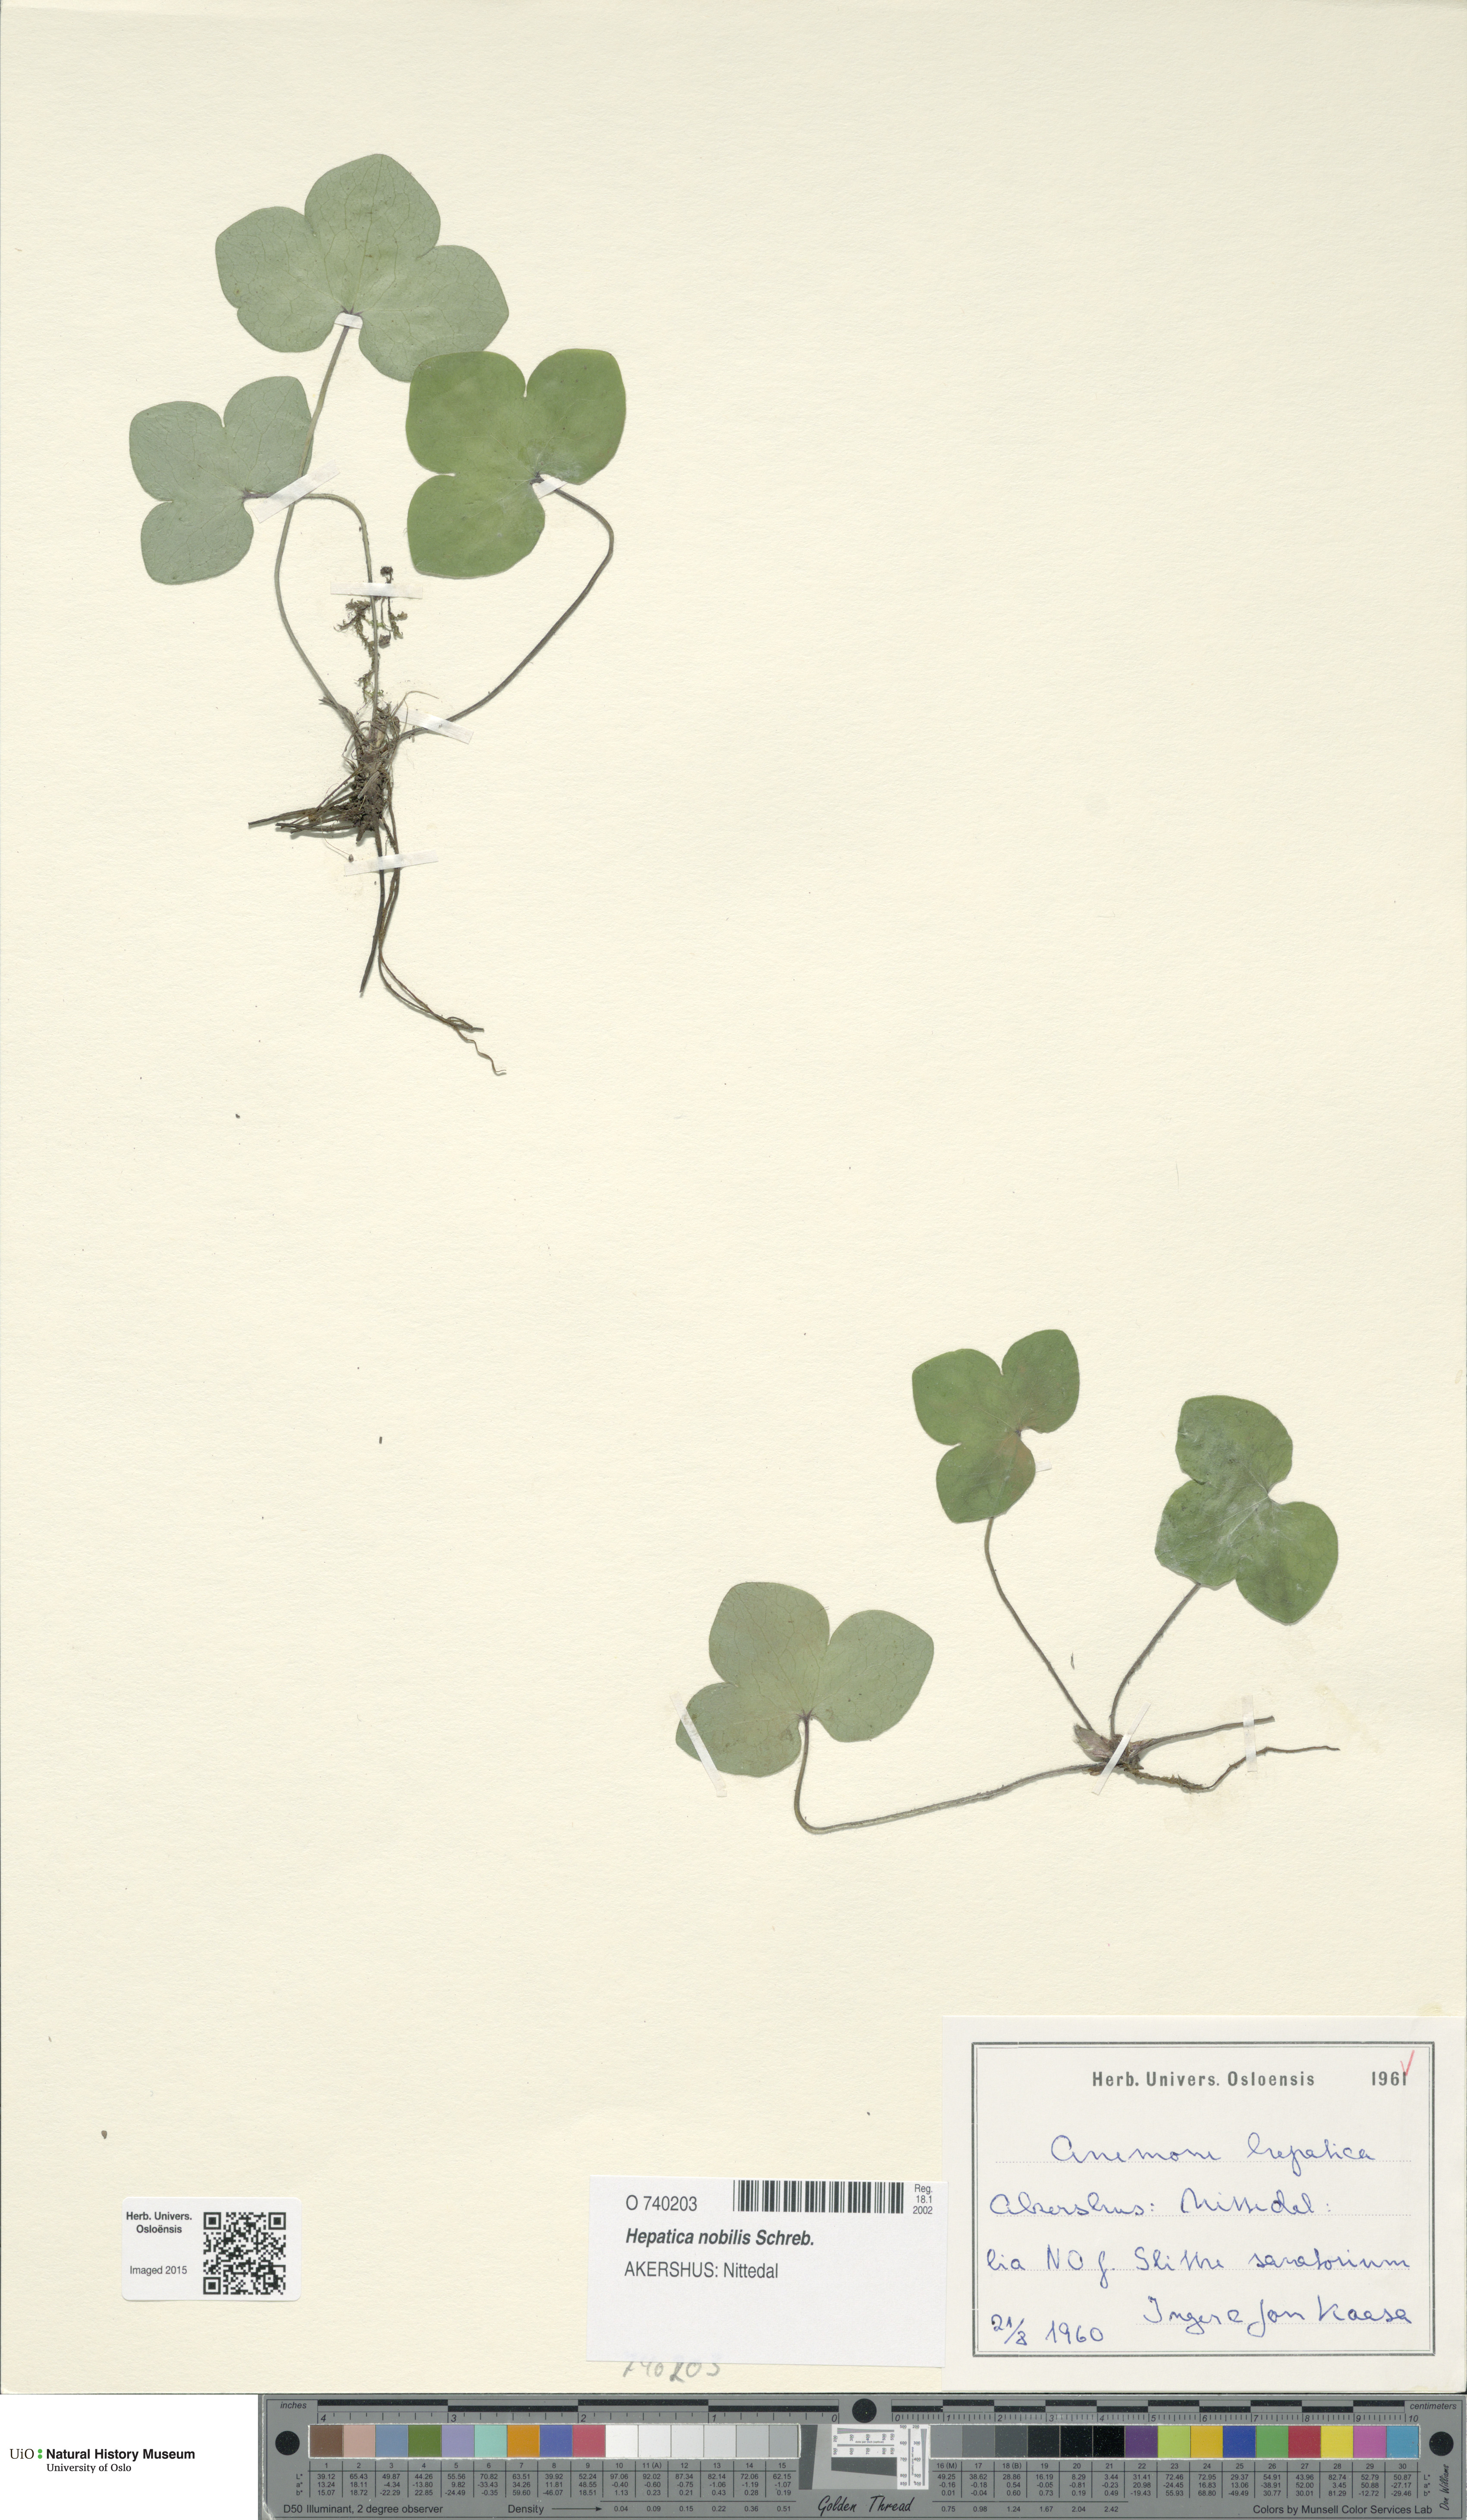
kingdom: Plantae
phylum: Tracheophyta
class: Magnoliopsida
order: Ranunculales
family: Ranunculaceae
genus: Hepatica
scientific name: Hepatica nobilis
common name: Liverleaf
